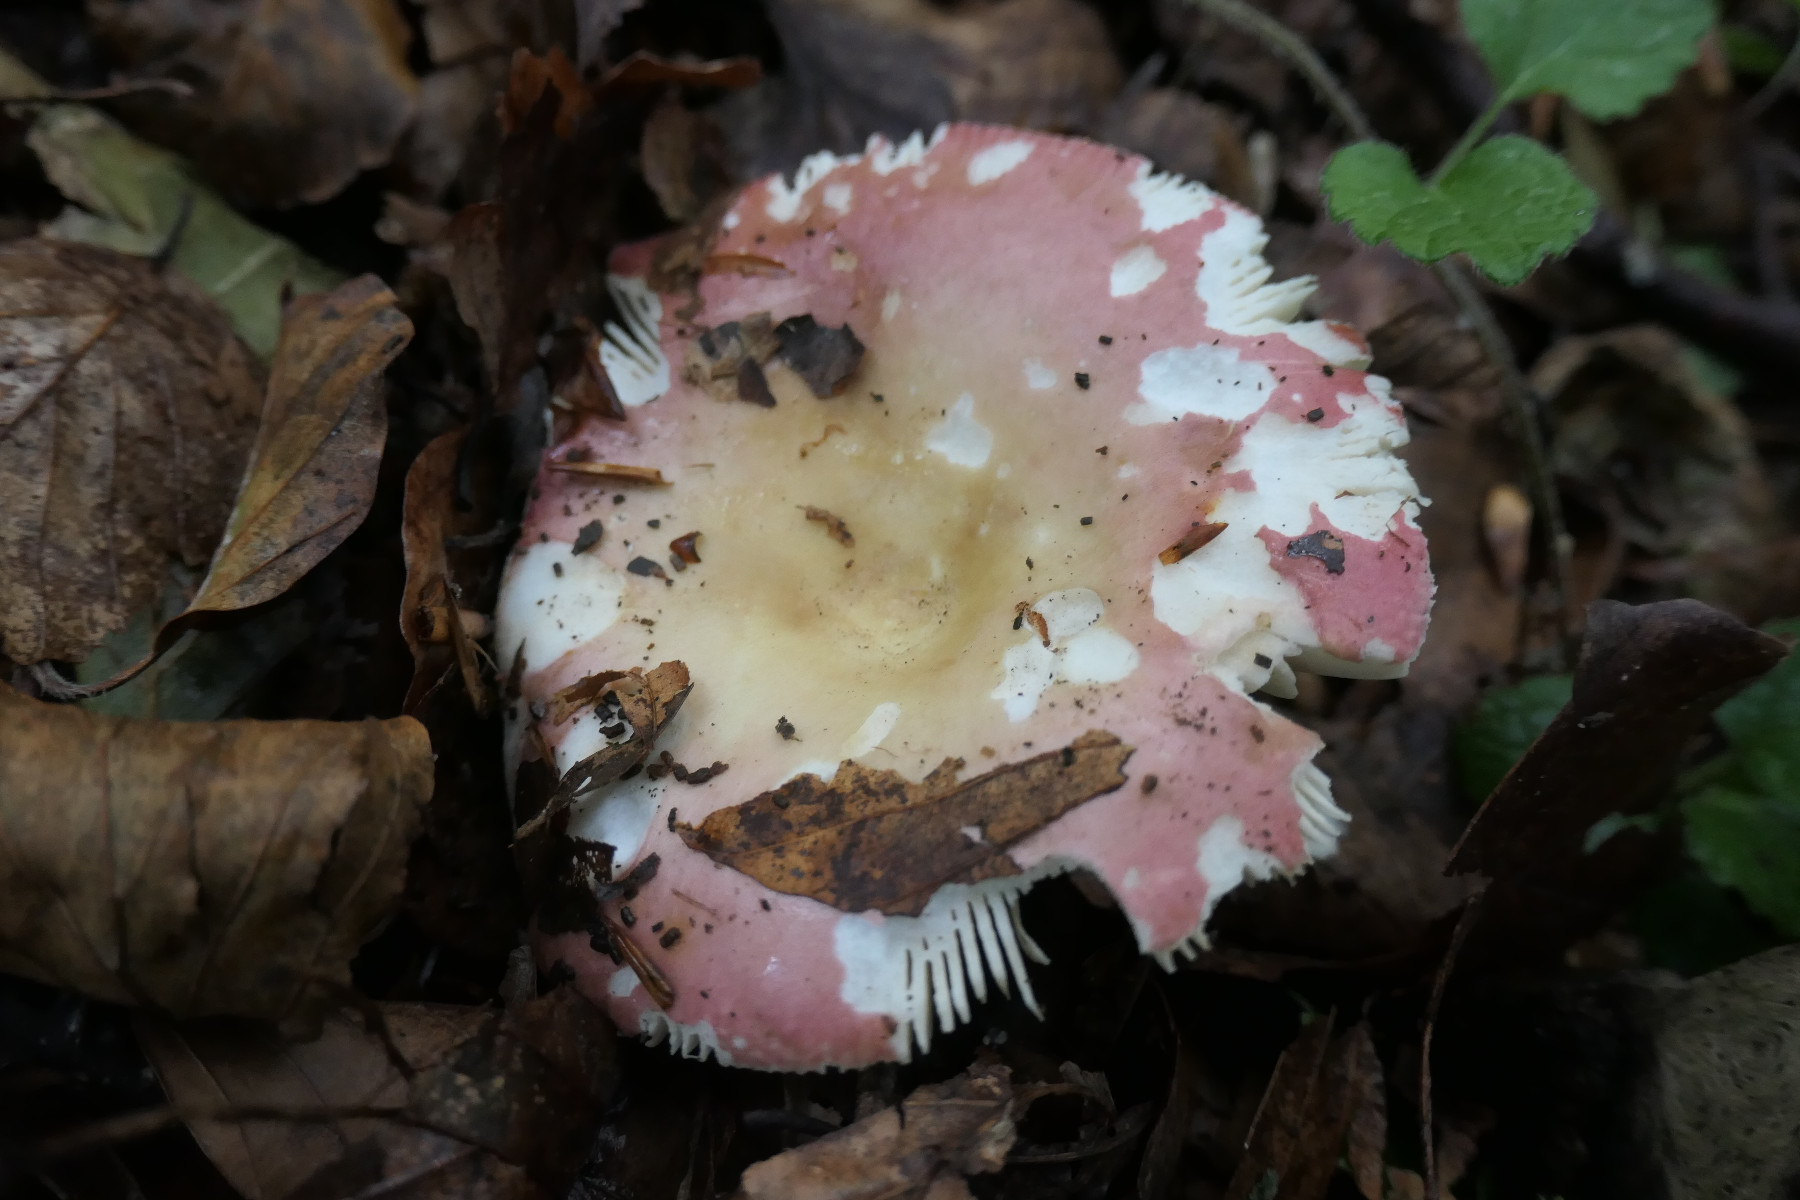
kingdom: Fungi
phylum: Basidiomycota
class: Agaricomycetes
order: Russulales
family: Russulaceae
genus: Russula
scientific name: Russula curtipes
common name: kortstokket skørhat
